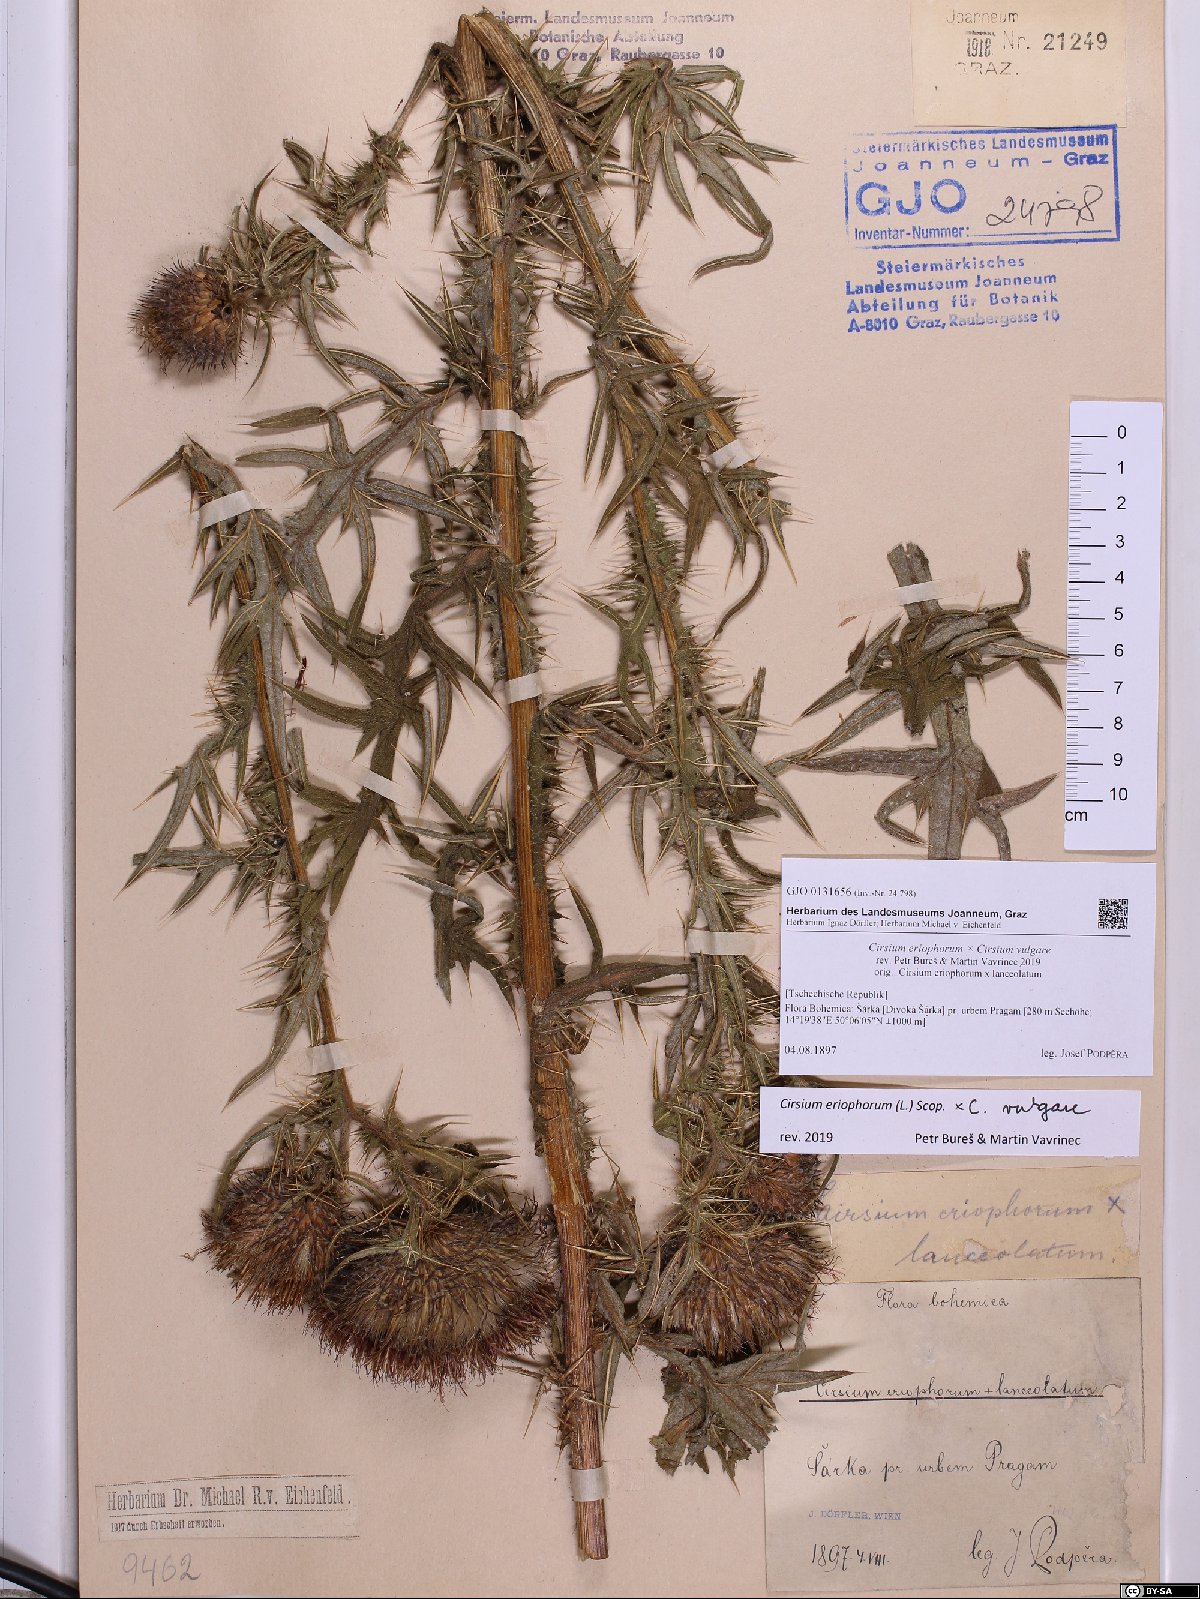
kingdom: Plantae
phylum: Tracheophyta
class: Magnoliopsida
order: Asterales
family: Asteraceae
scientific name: Asteraceae
